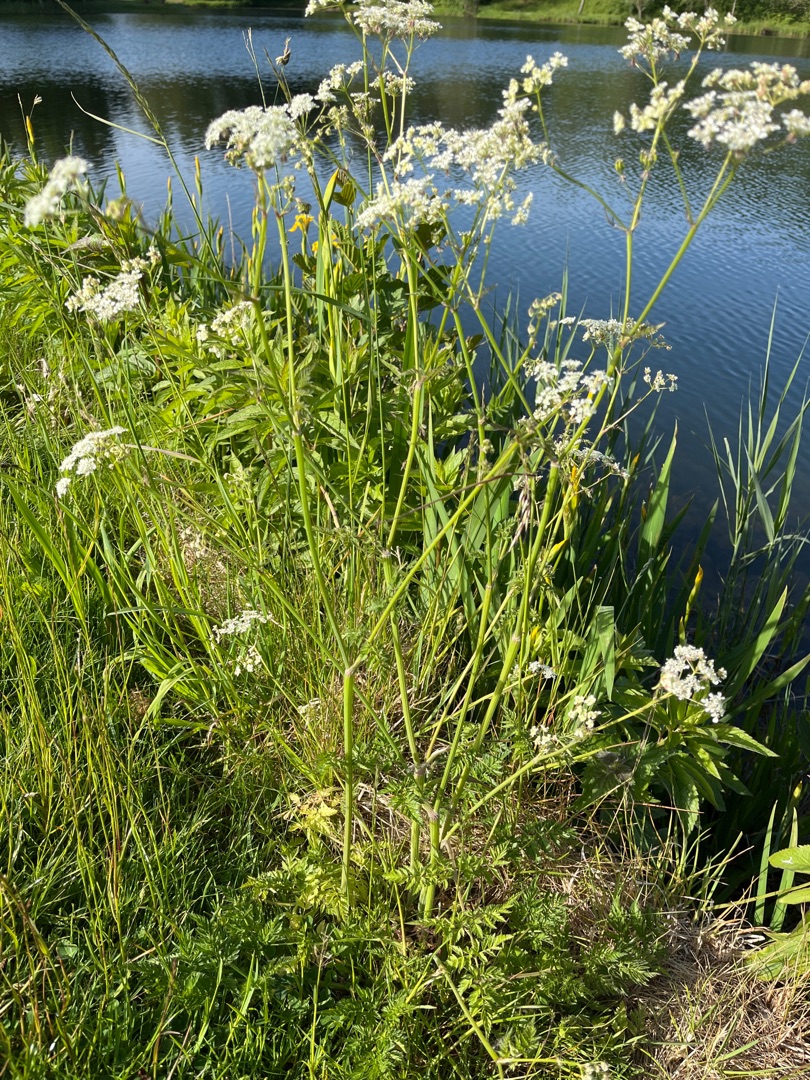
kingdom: Plantae
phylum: Tracheophyta
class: Magnoliopsida
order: Apiales
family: Apiaceae
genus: Anthriscus
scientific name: Anthriscus sylvestris
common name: Vild kørvel
